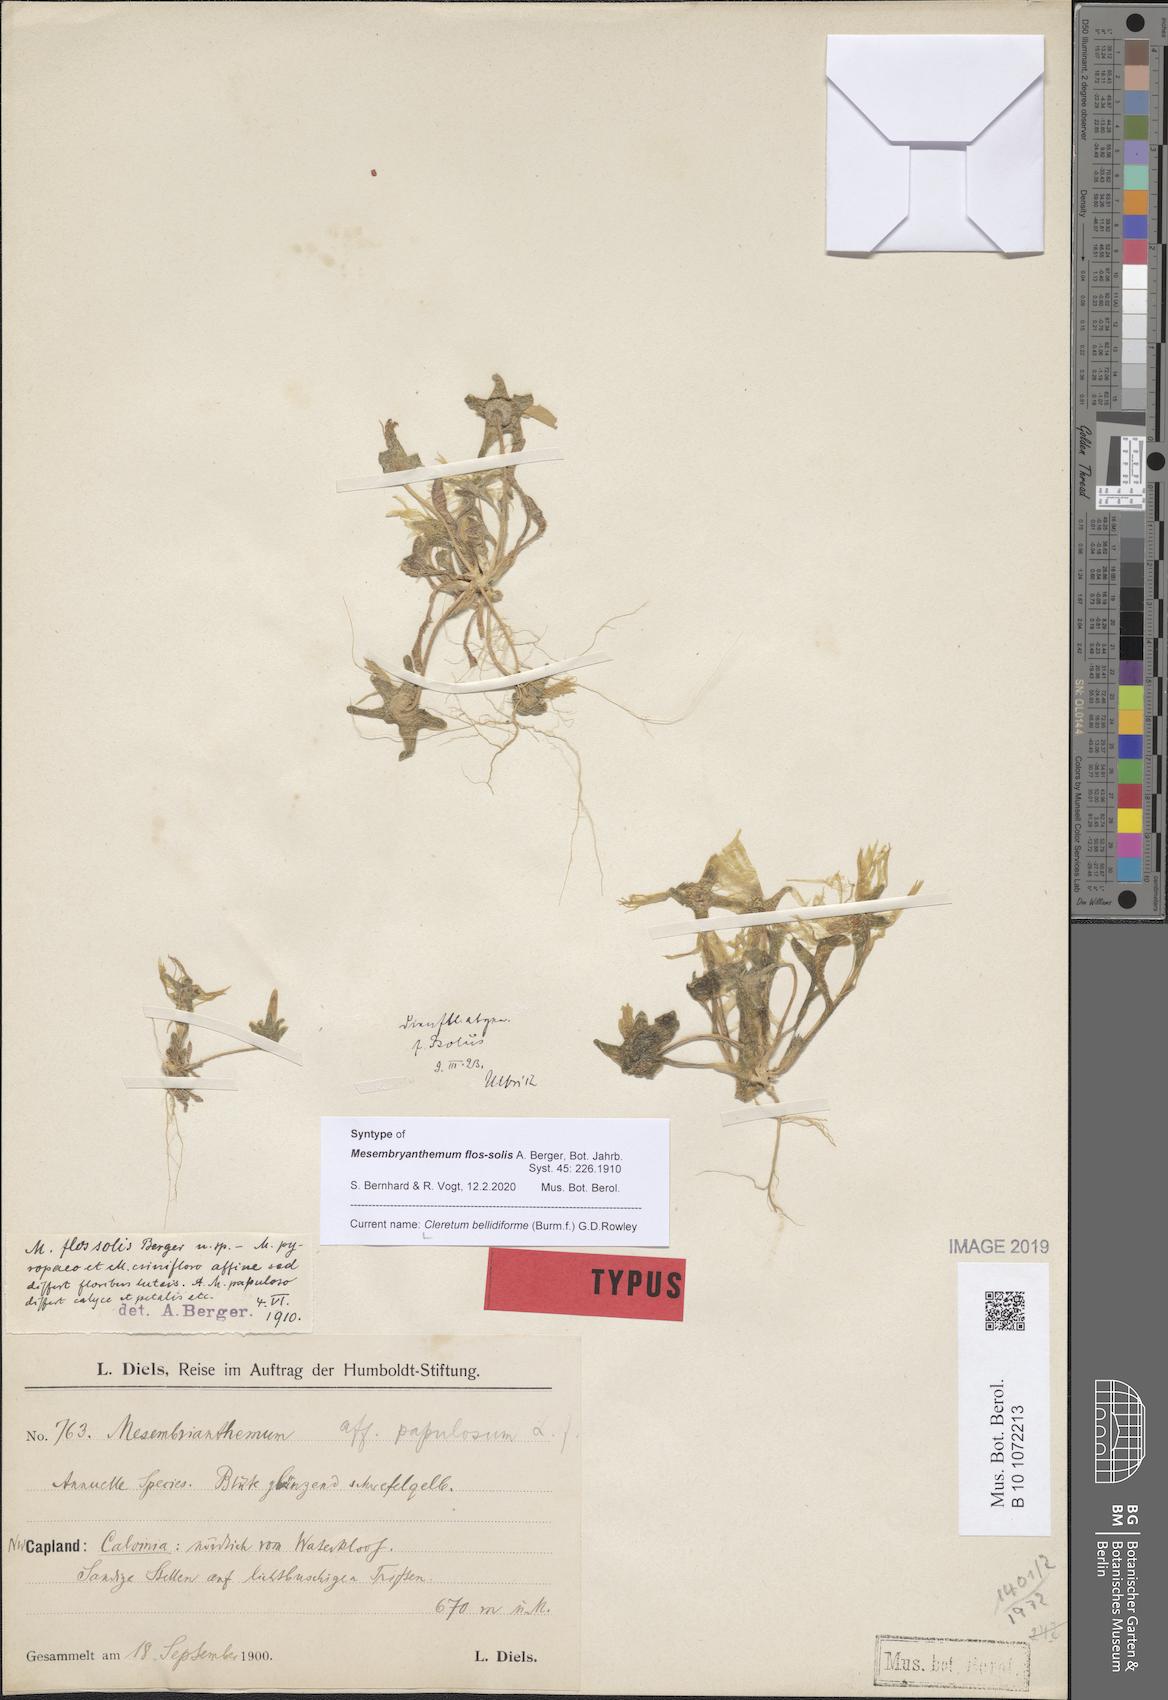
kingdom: Plantae
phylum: Tracheophyta
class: Magnoliopsida
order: Caryophyllales
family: Aizoaceae
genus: Cleretum
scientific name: Cleretum bellidiforme
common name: Livingstone daisy
